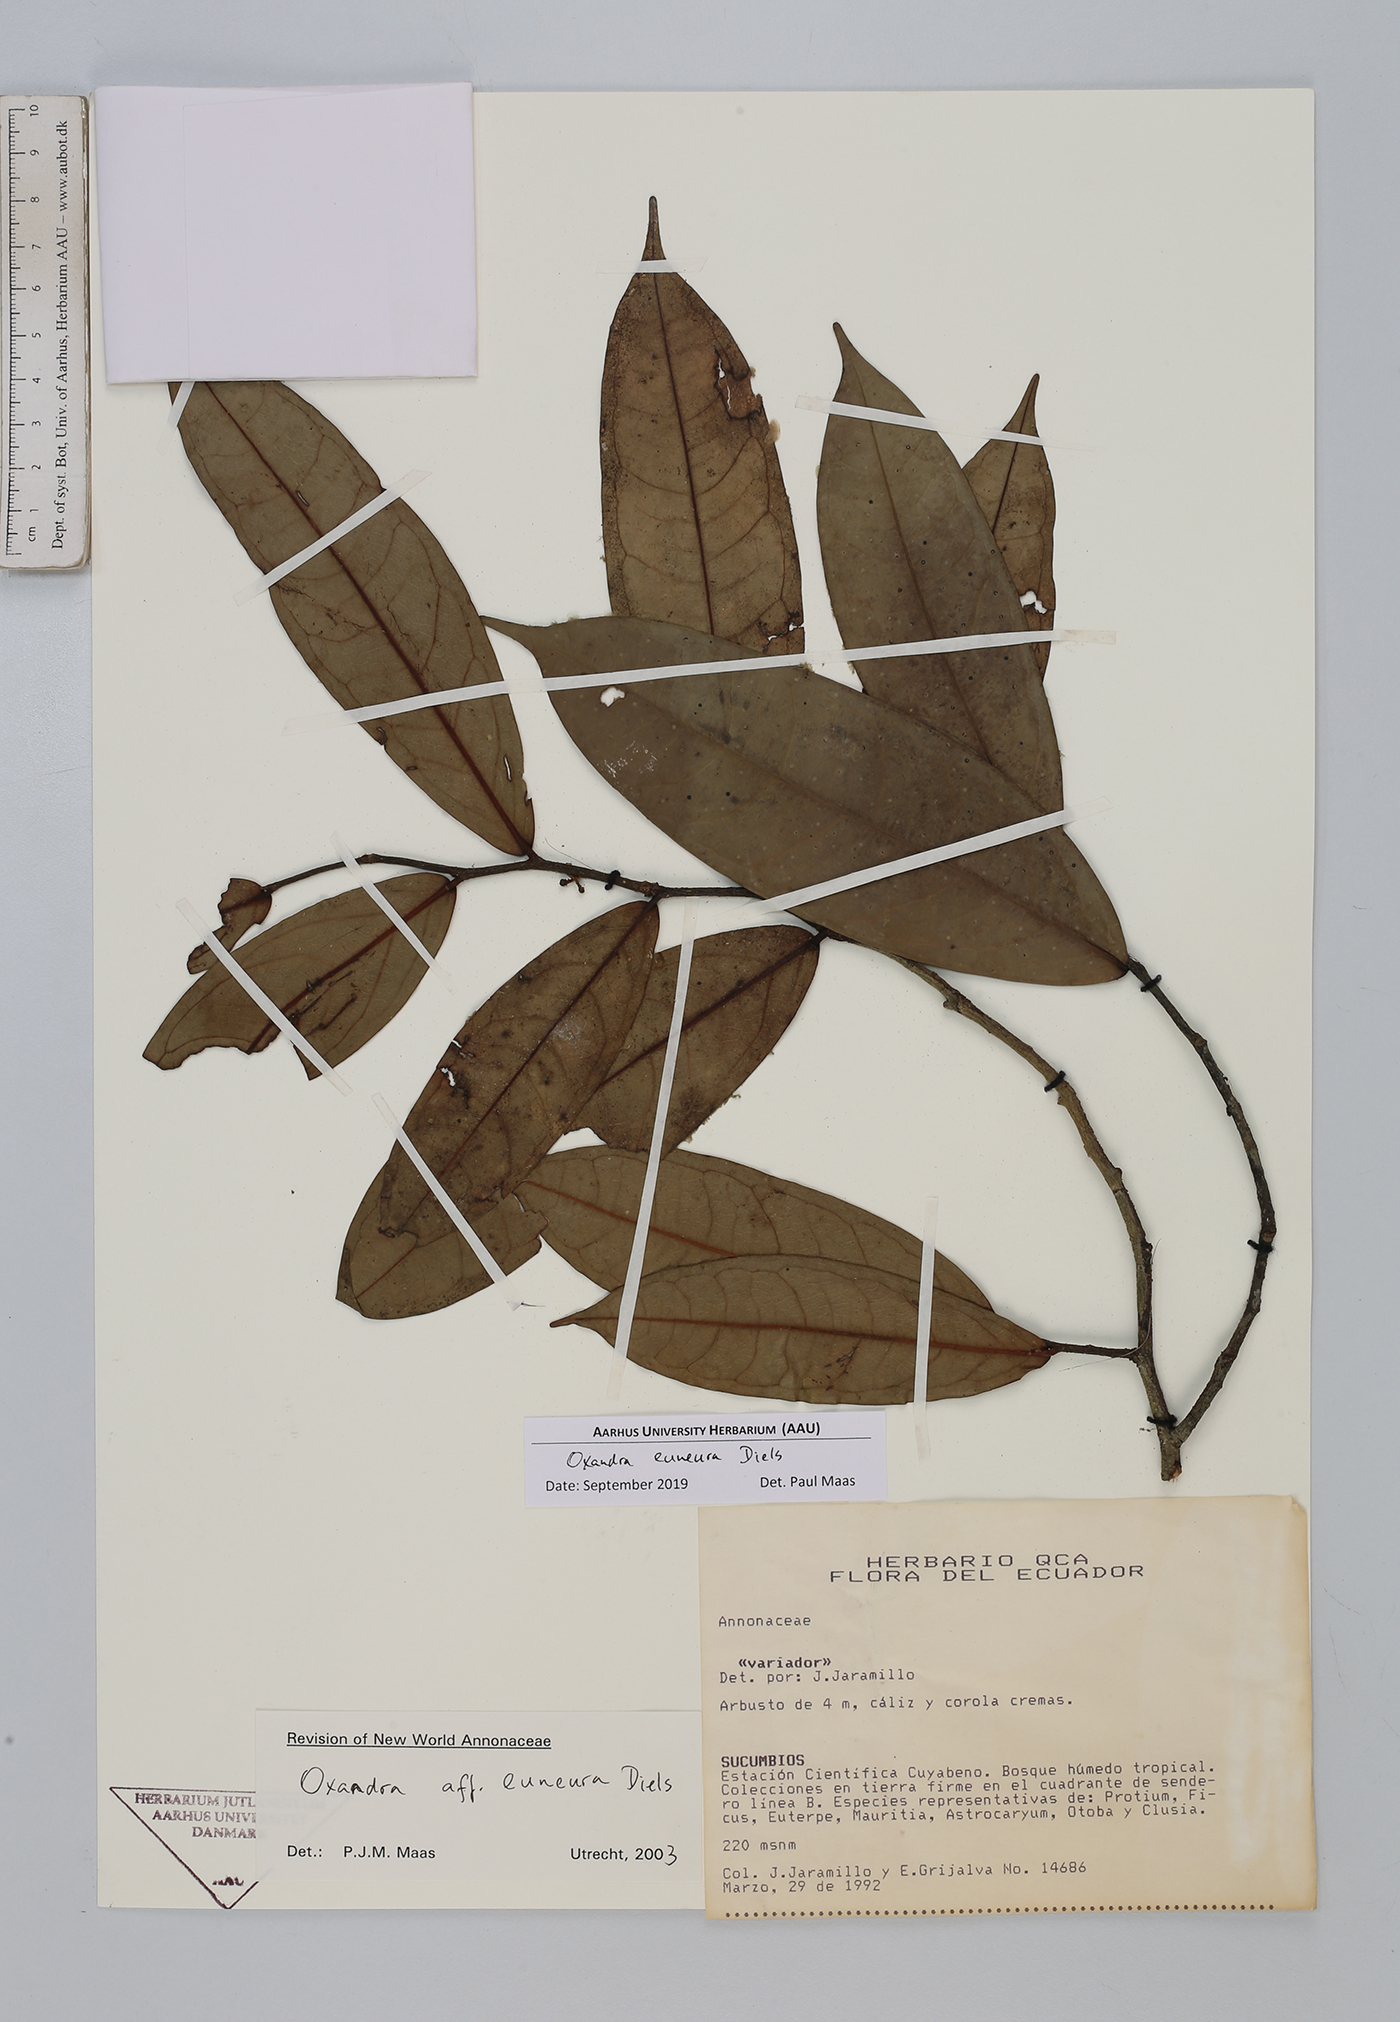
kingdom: Plantae
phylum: Tracheophyta
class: Magnoliopsida
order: Magnoliales
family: Annonaceae
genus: Oxandra
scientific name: Oxandra euneura
